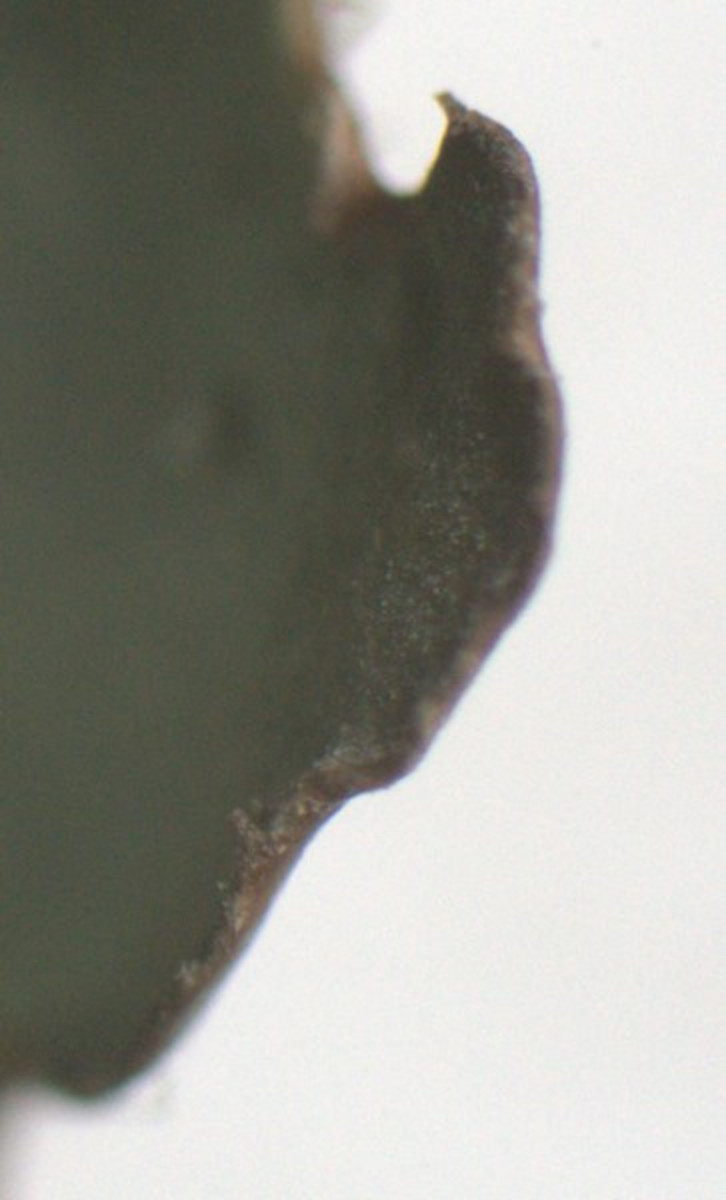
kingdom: Fungi
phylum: Ascomycota
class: Lecanoromycetes
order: Lecanorales
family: Parmeliaceae
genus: Punctelia
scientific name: Punctelia jeckeri
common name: randstøvet skållav
